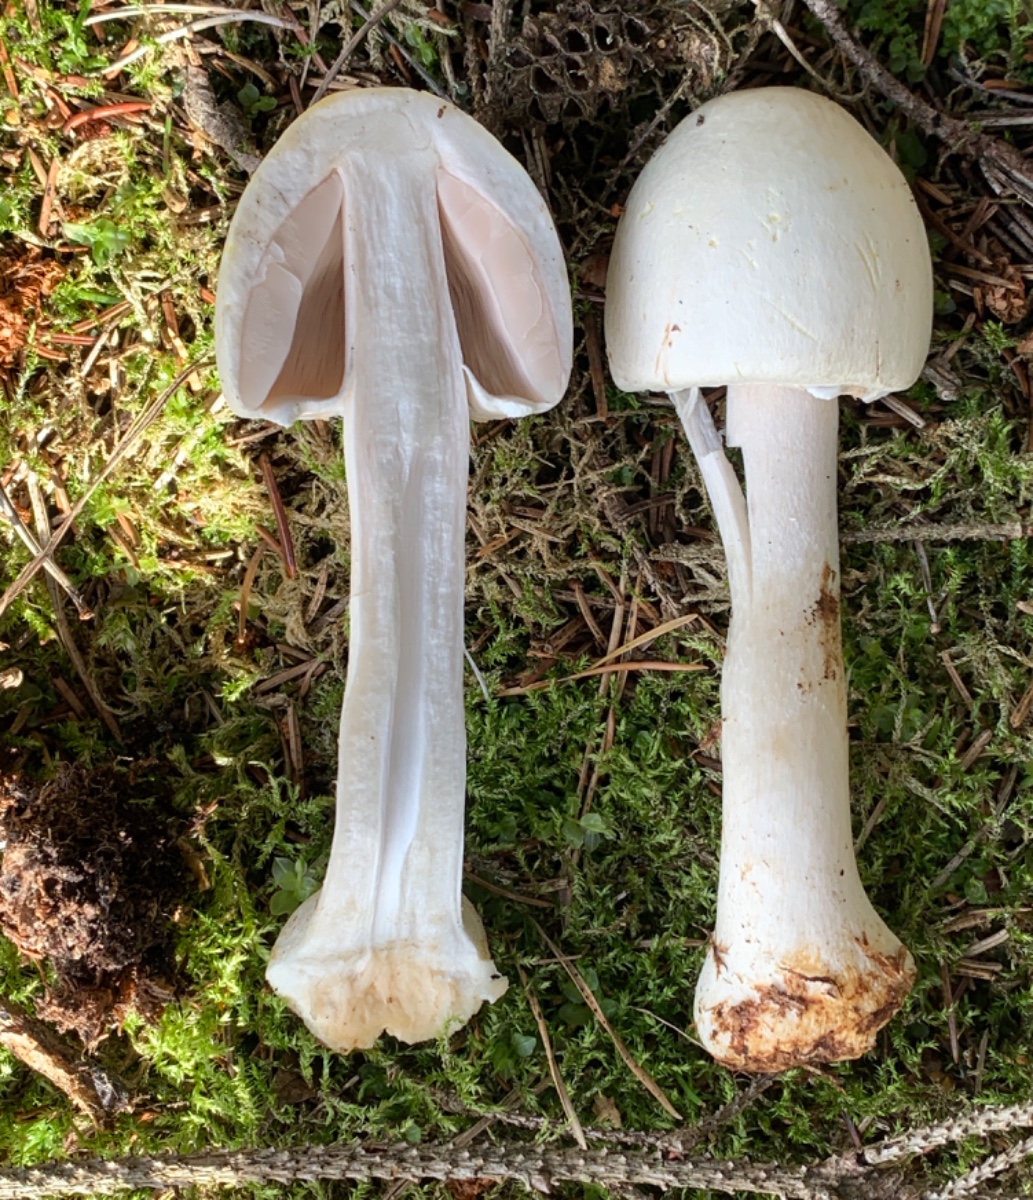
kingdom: Fungi
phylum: Basidiomycota
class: Agaricomycetes
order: Agaricales
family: Agaricaceae
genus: Agaricus
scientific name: Agaricus sylvicola
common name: skiveknoldet champignon
